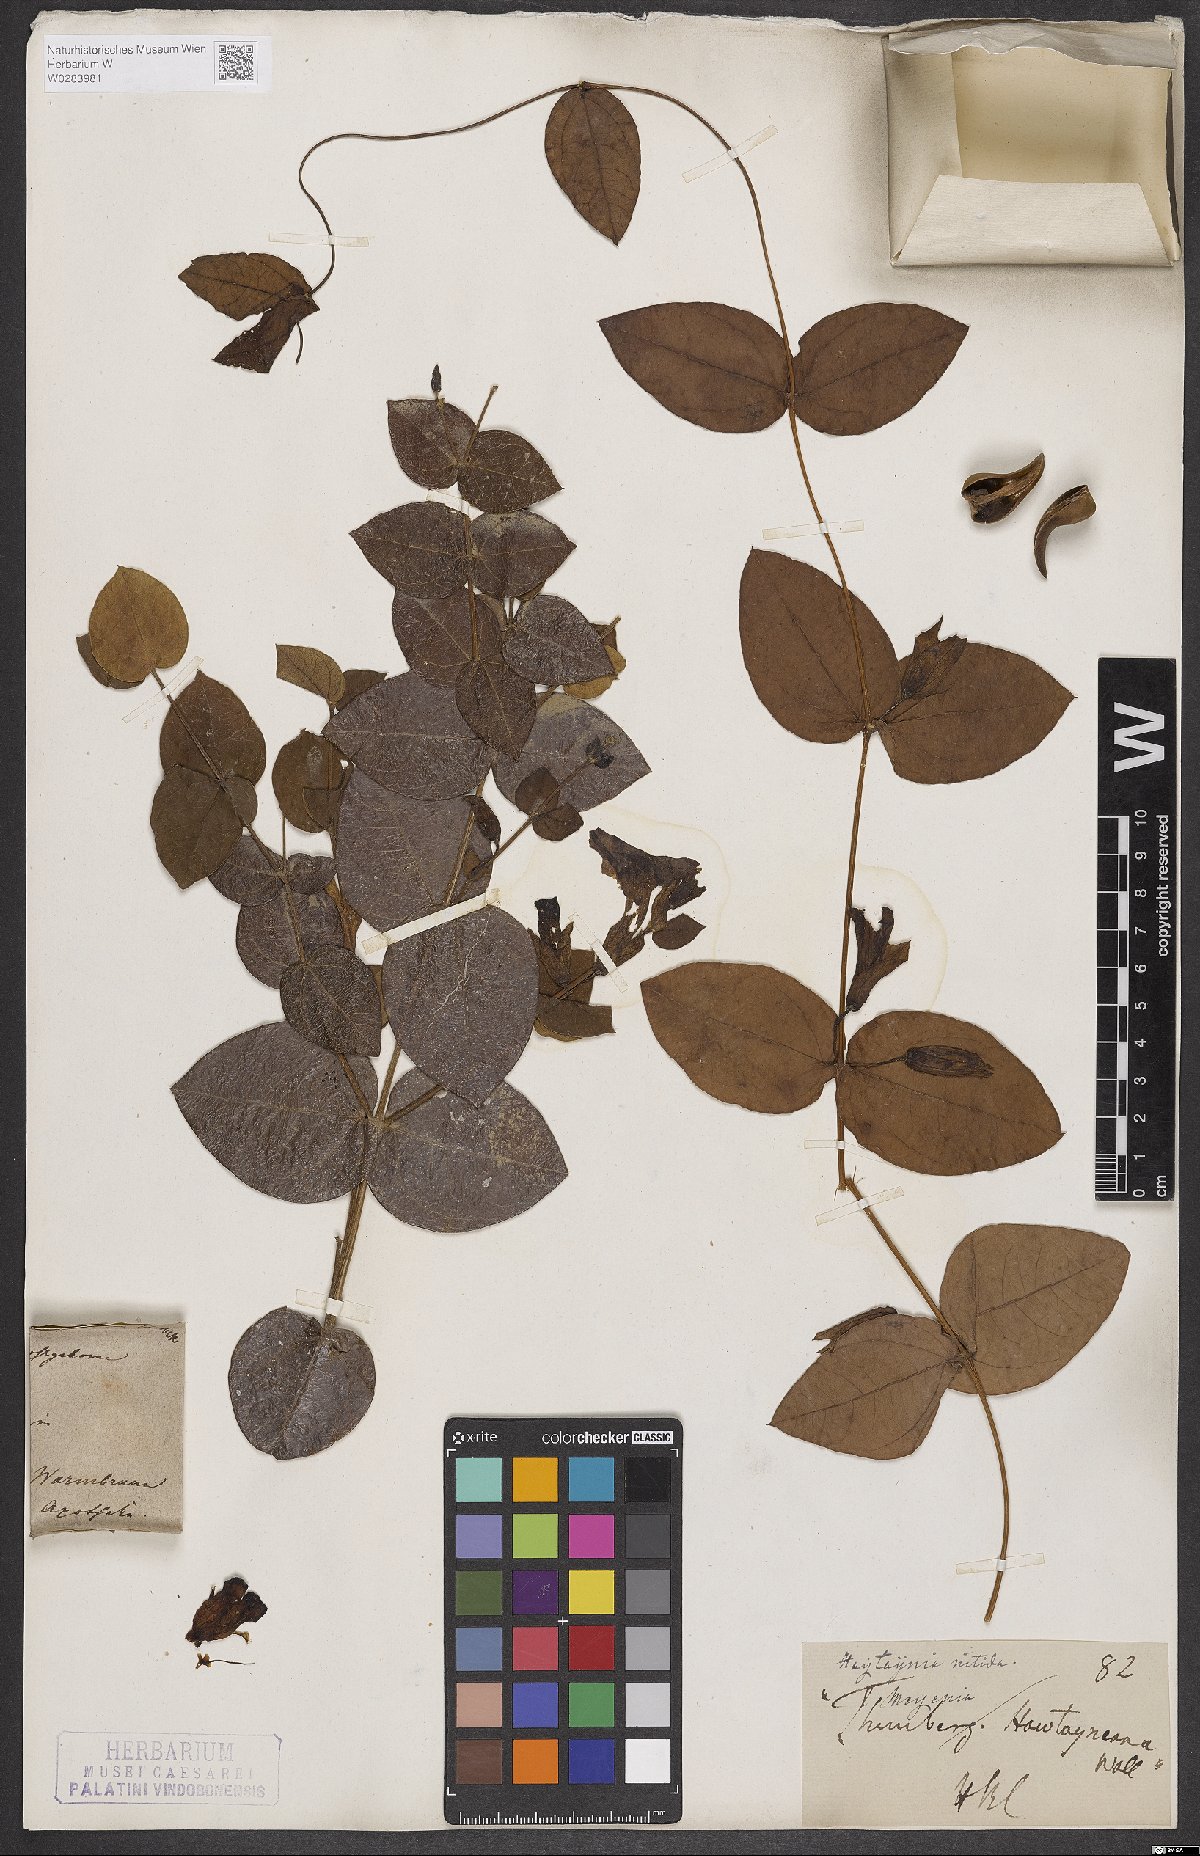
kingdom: Plantae
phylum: Tracheophyta
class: Magnoliopsida
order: Lamiales
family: Acanthaceae
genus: Meyenia
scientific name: Meyenia hawtayneana
